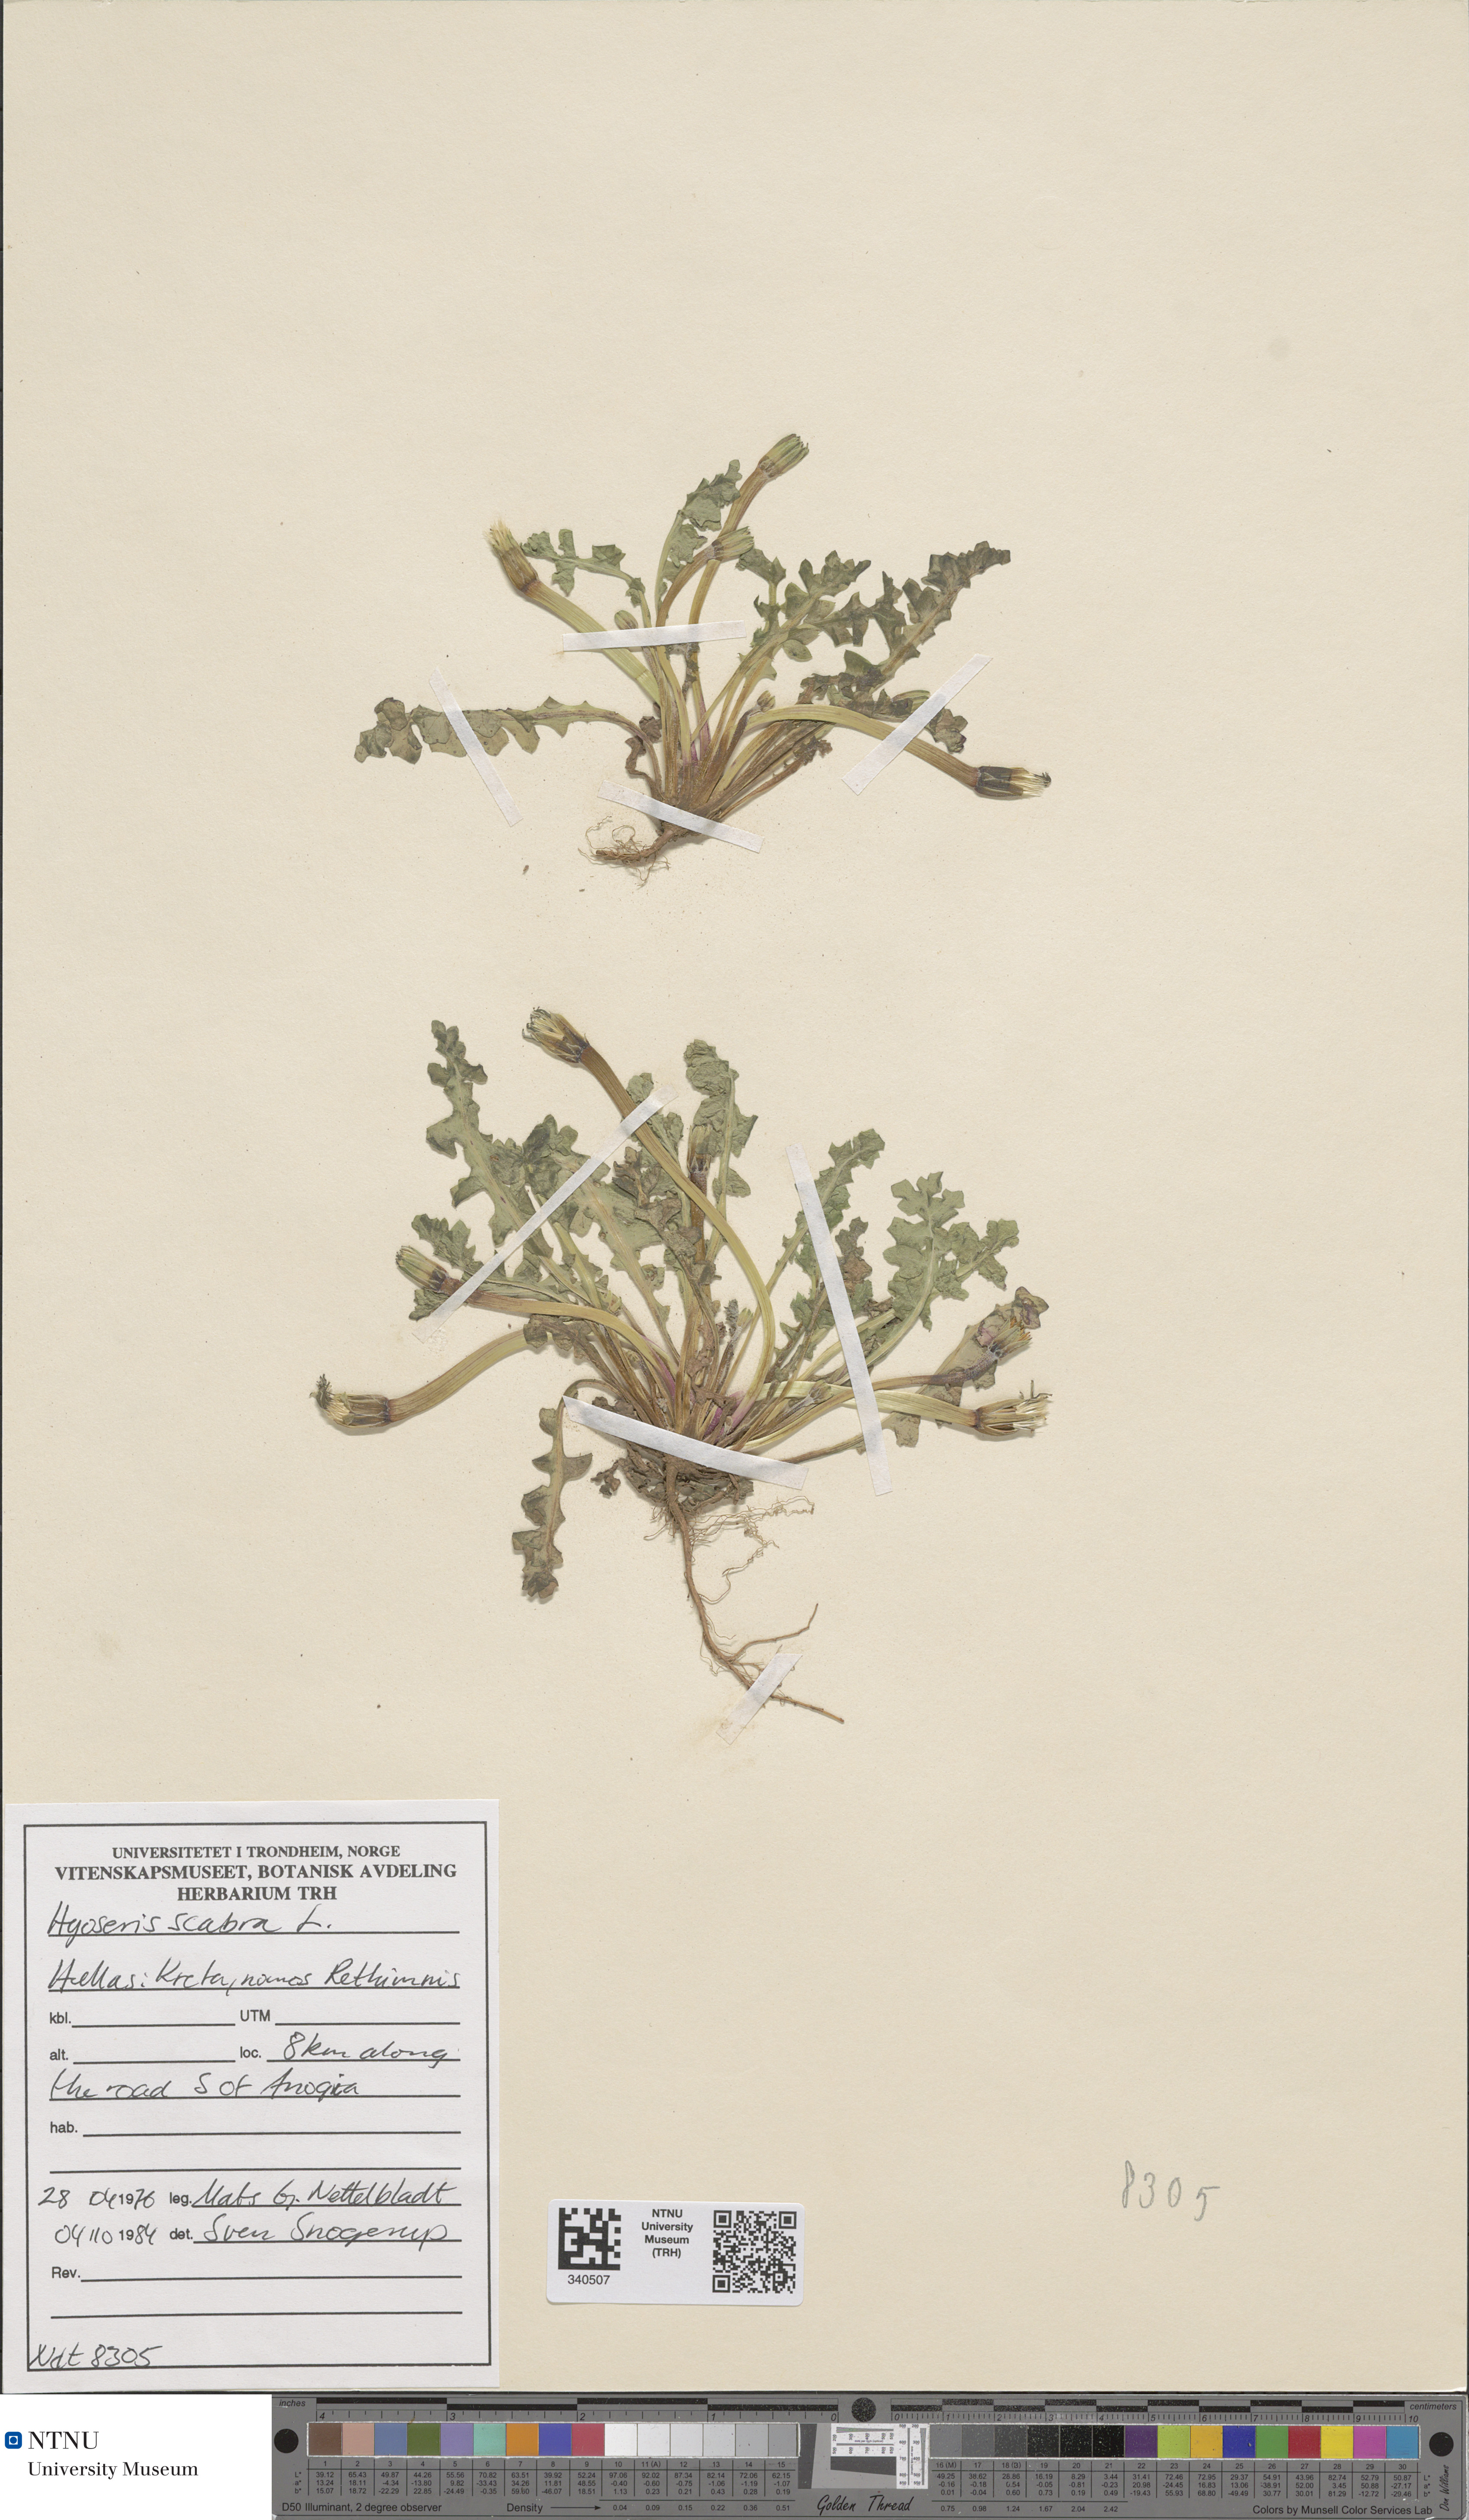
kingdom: Plantae
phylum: Tracheophyta
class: Magnoliopsida
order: Asterales
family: Asteraceae
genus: Hyoseris
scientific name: Hyoseris scabra
